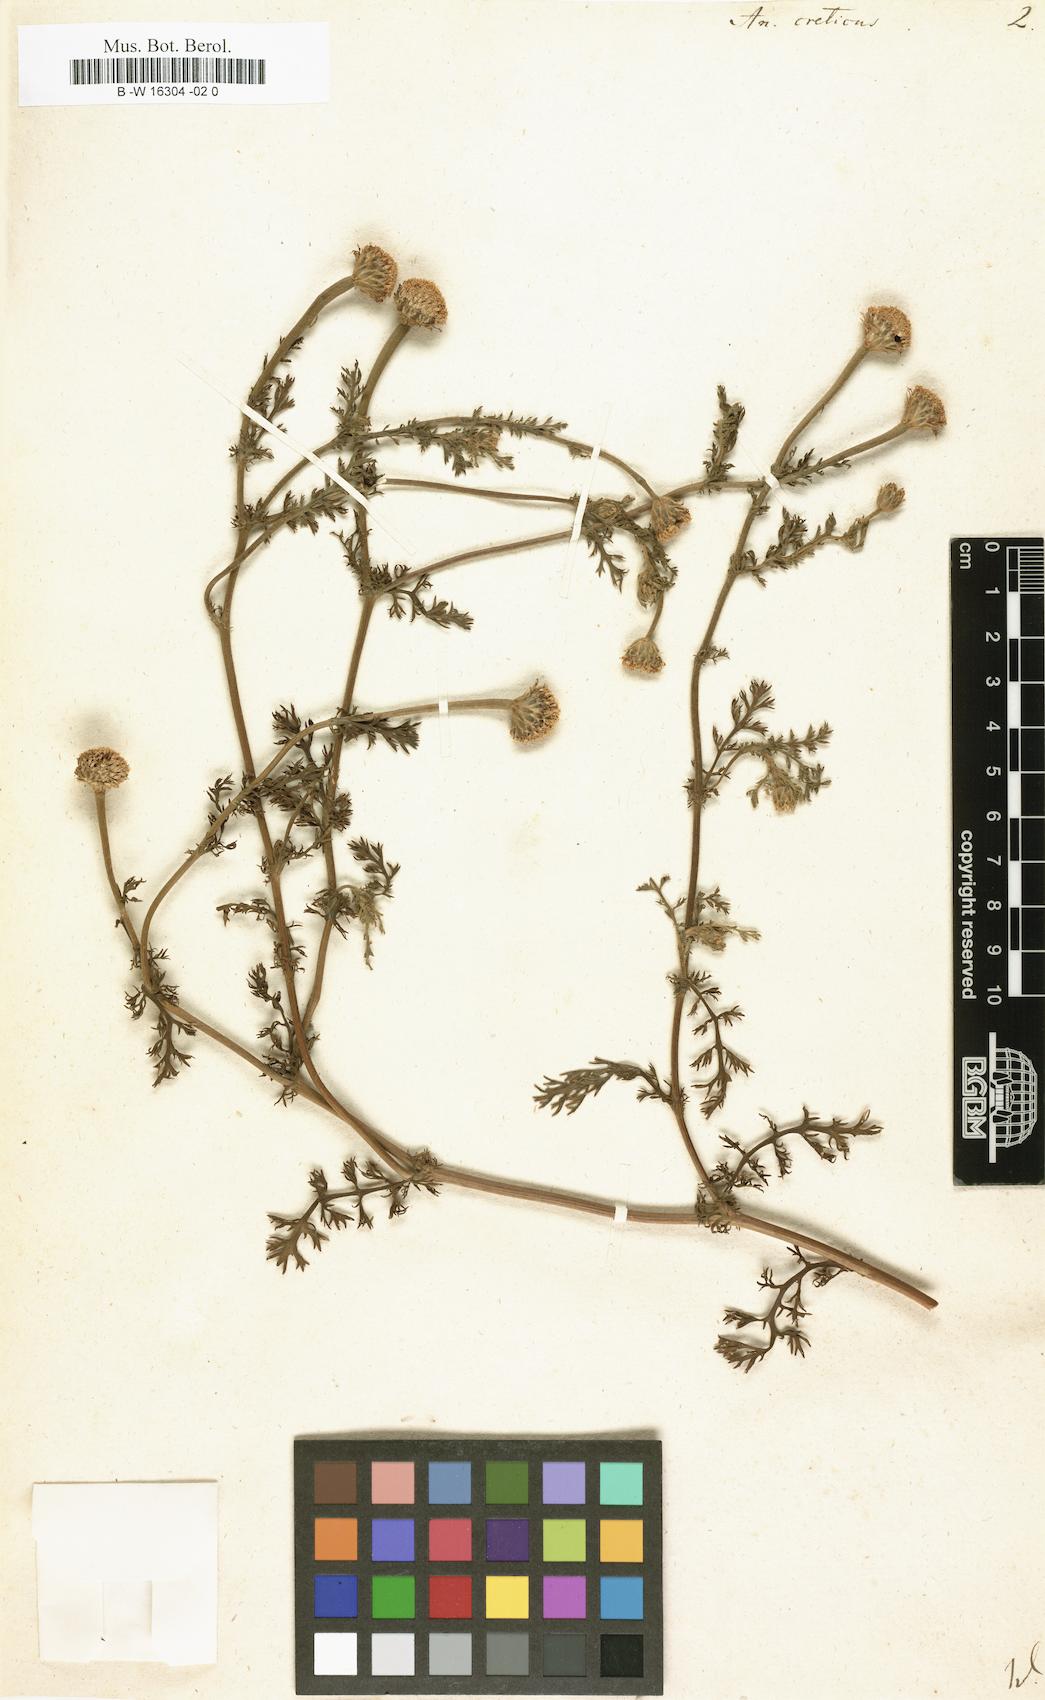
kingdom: Plantae
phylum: Tracheophyta
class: Magnoliopsida
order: Asterales
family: Asteraceae
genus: Anthemis
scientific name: Anthemis cretica
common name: Mountain dog-daisy
